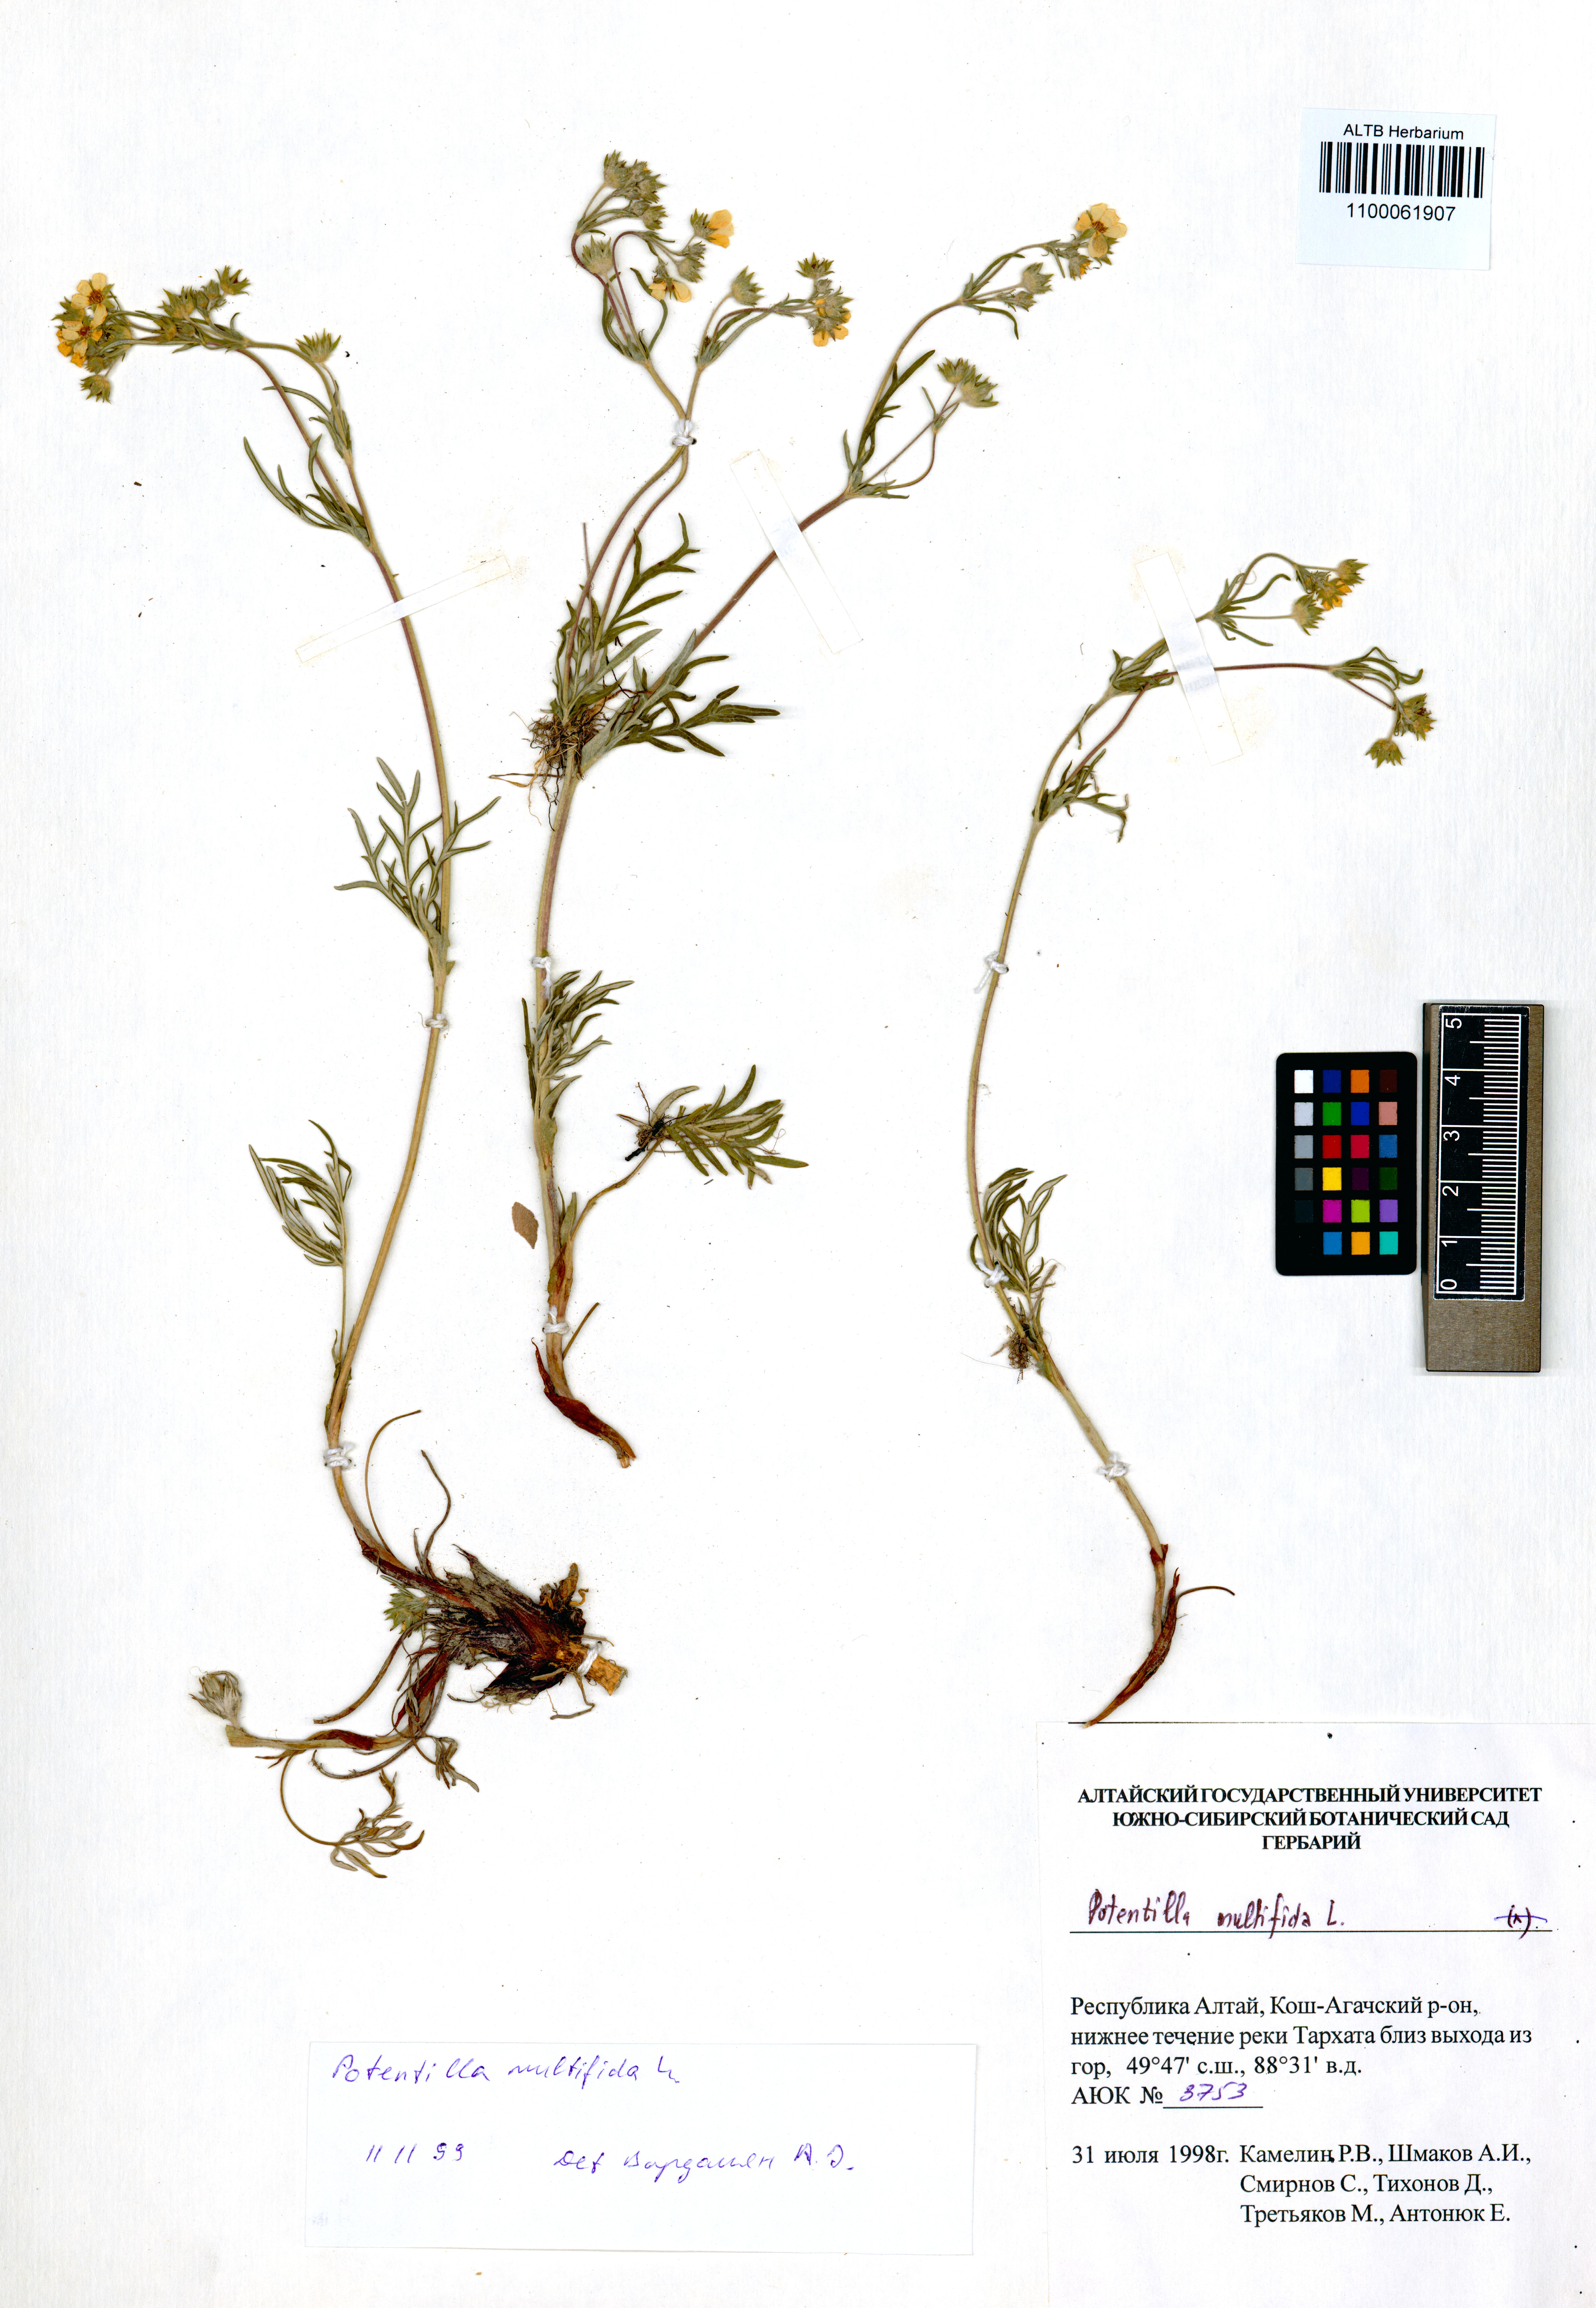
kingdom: Plantae
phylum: Tracheophyta
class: Magnoliopsida
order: Rosales
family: Rosaceae
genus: Potentilla
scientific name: Potentilla multifida
